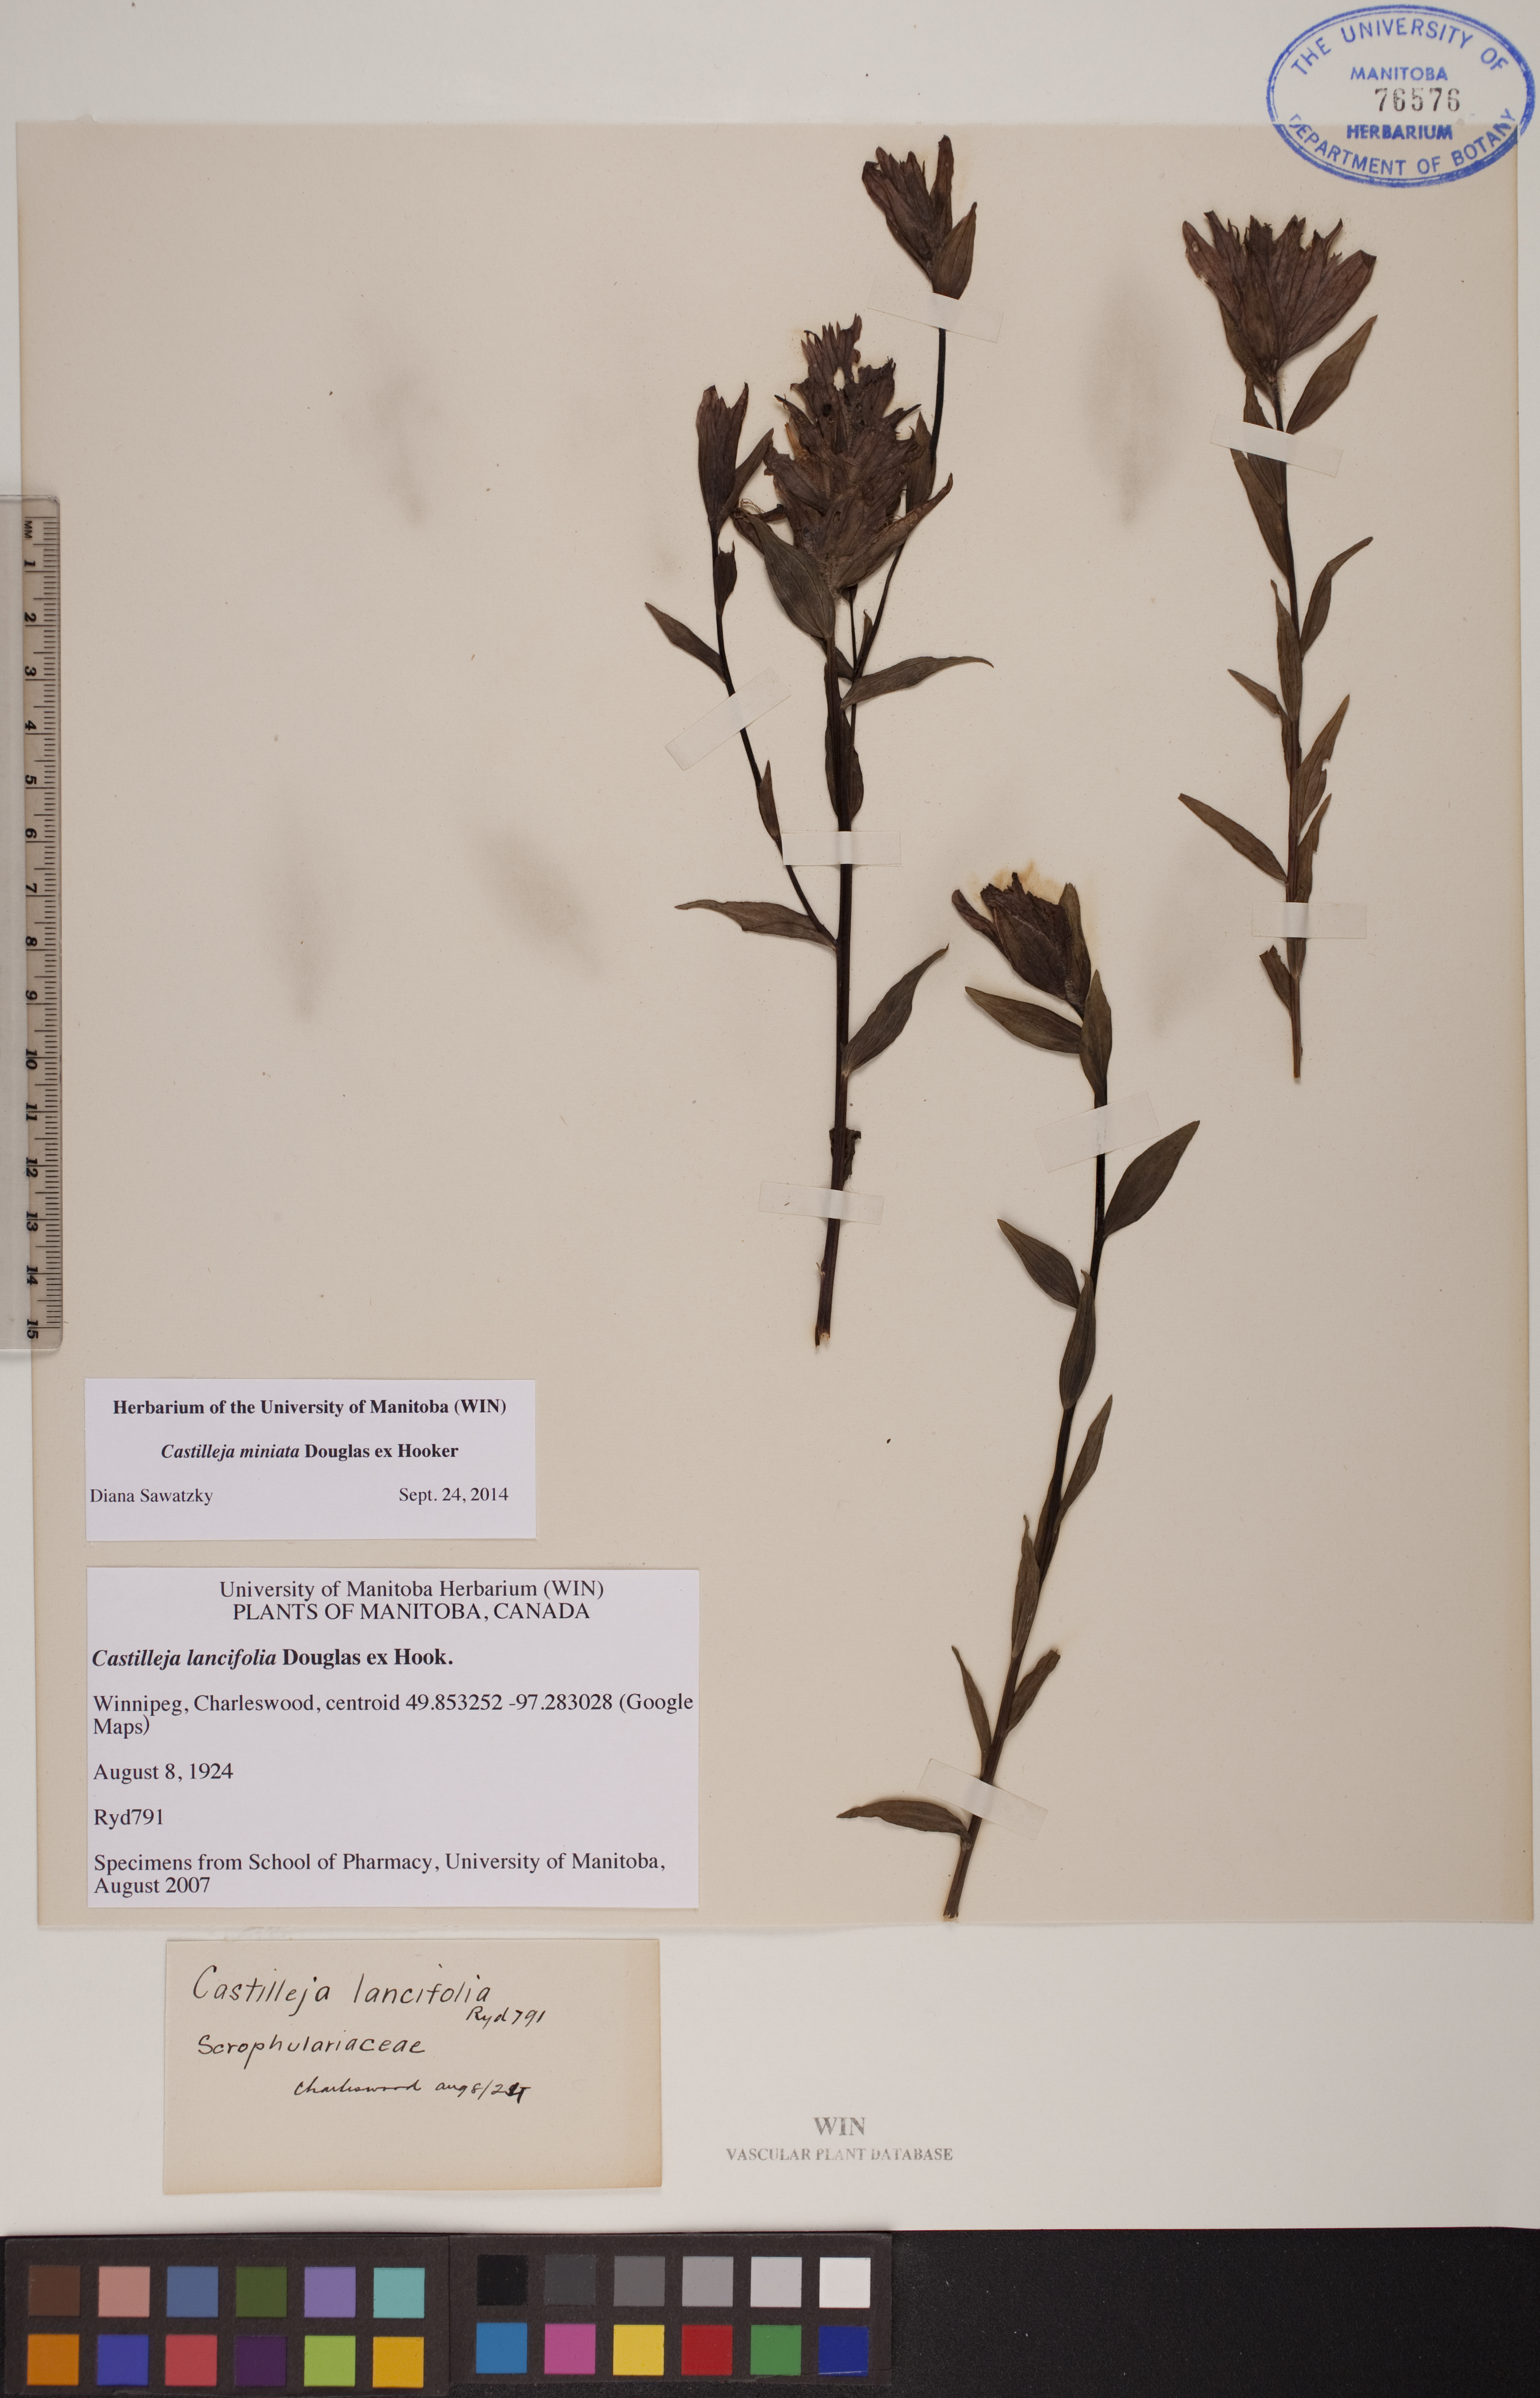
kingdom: Plantae
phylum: Tracheophyta
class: Magnoliopsida
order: Lamiales
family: Orobanchaceae
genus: Castilleja
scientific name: Castilleja miniata
